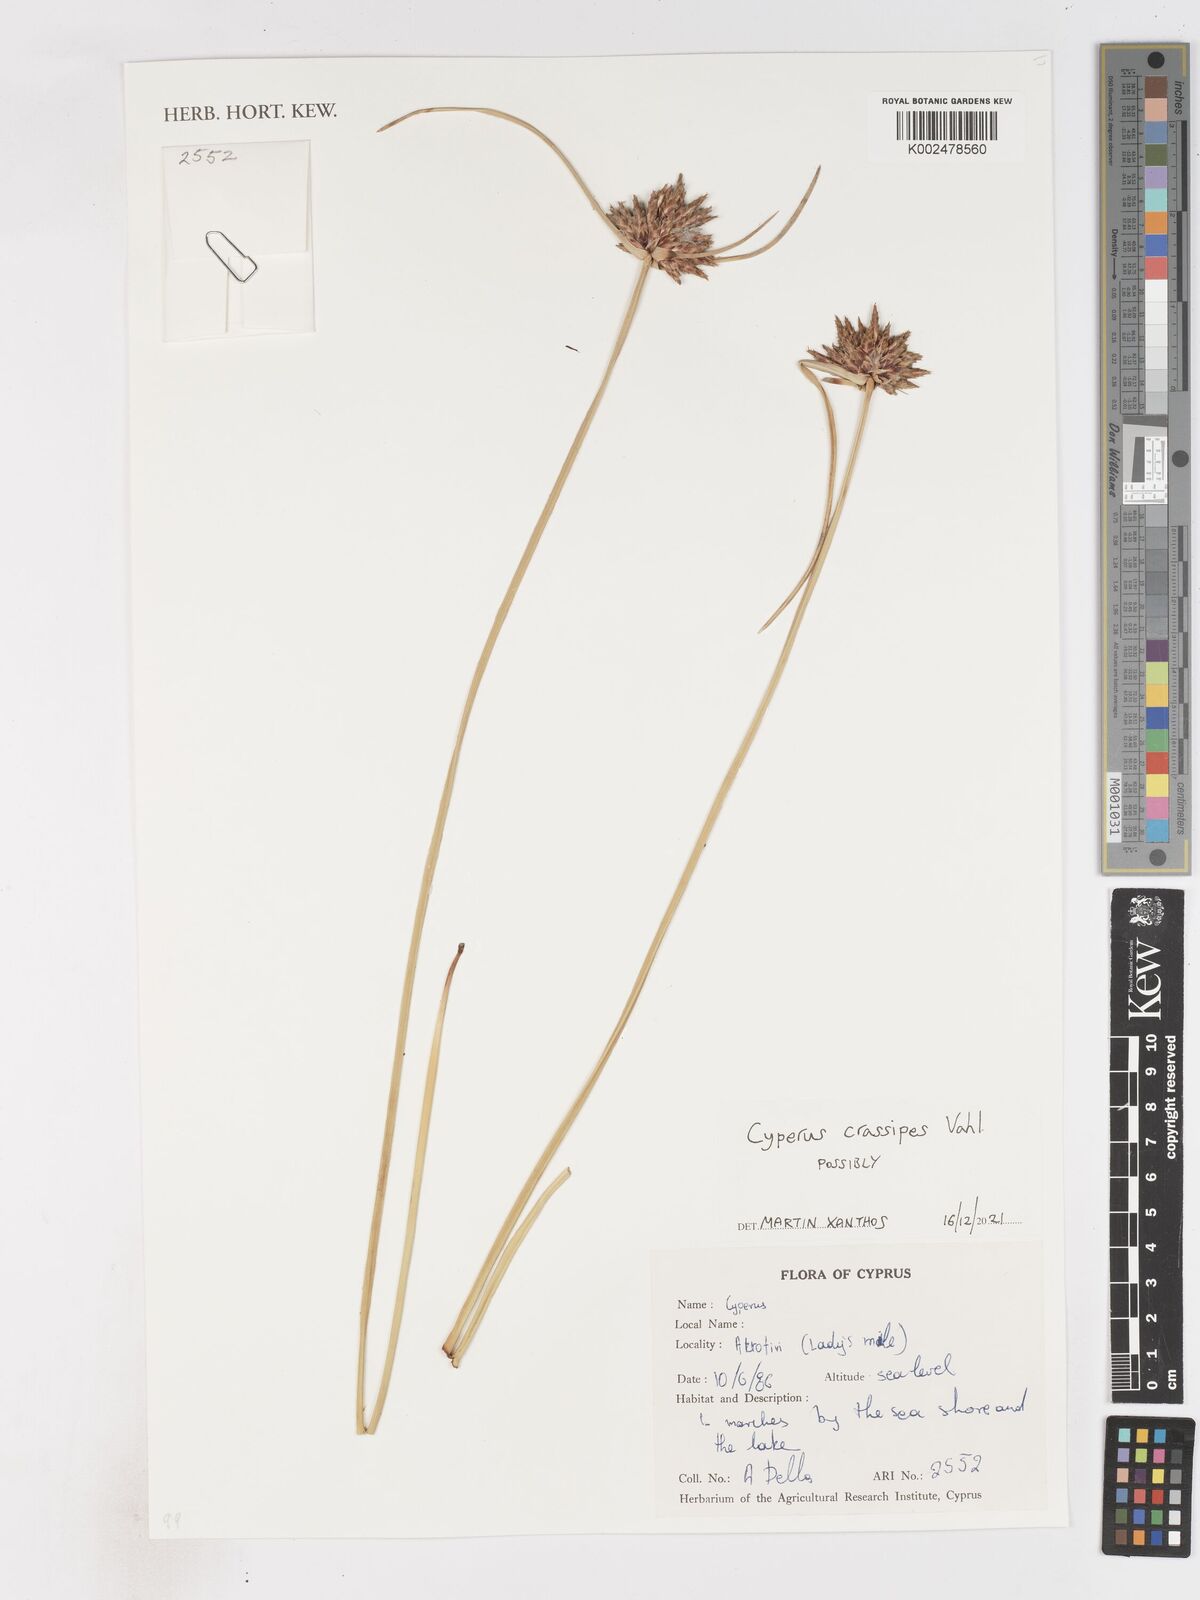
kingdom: Plantae
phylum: Tracheophyta
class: Liliopsida
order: Poales
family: Cyperaceae
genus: Cyperus
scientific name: Cyperus crassipes
